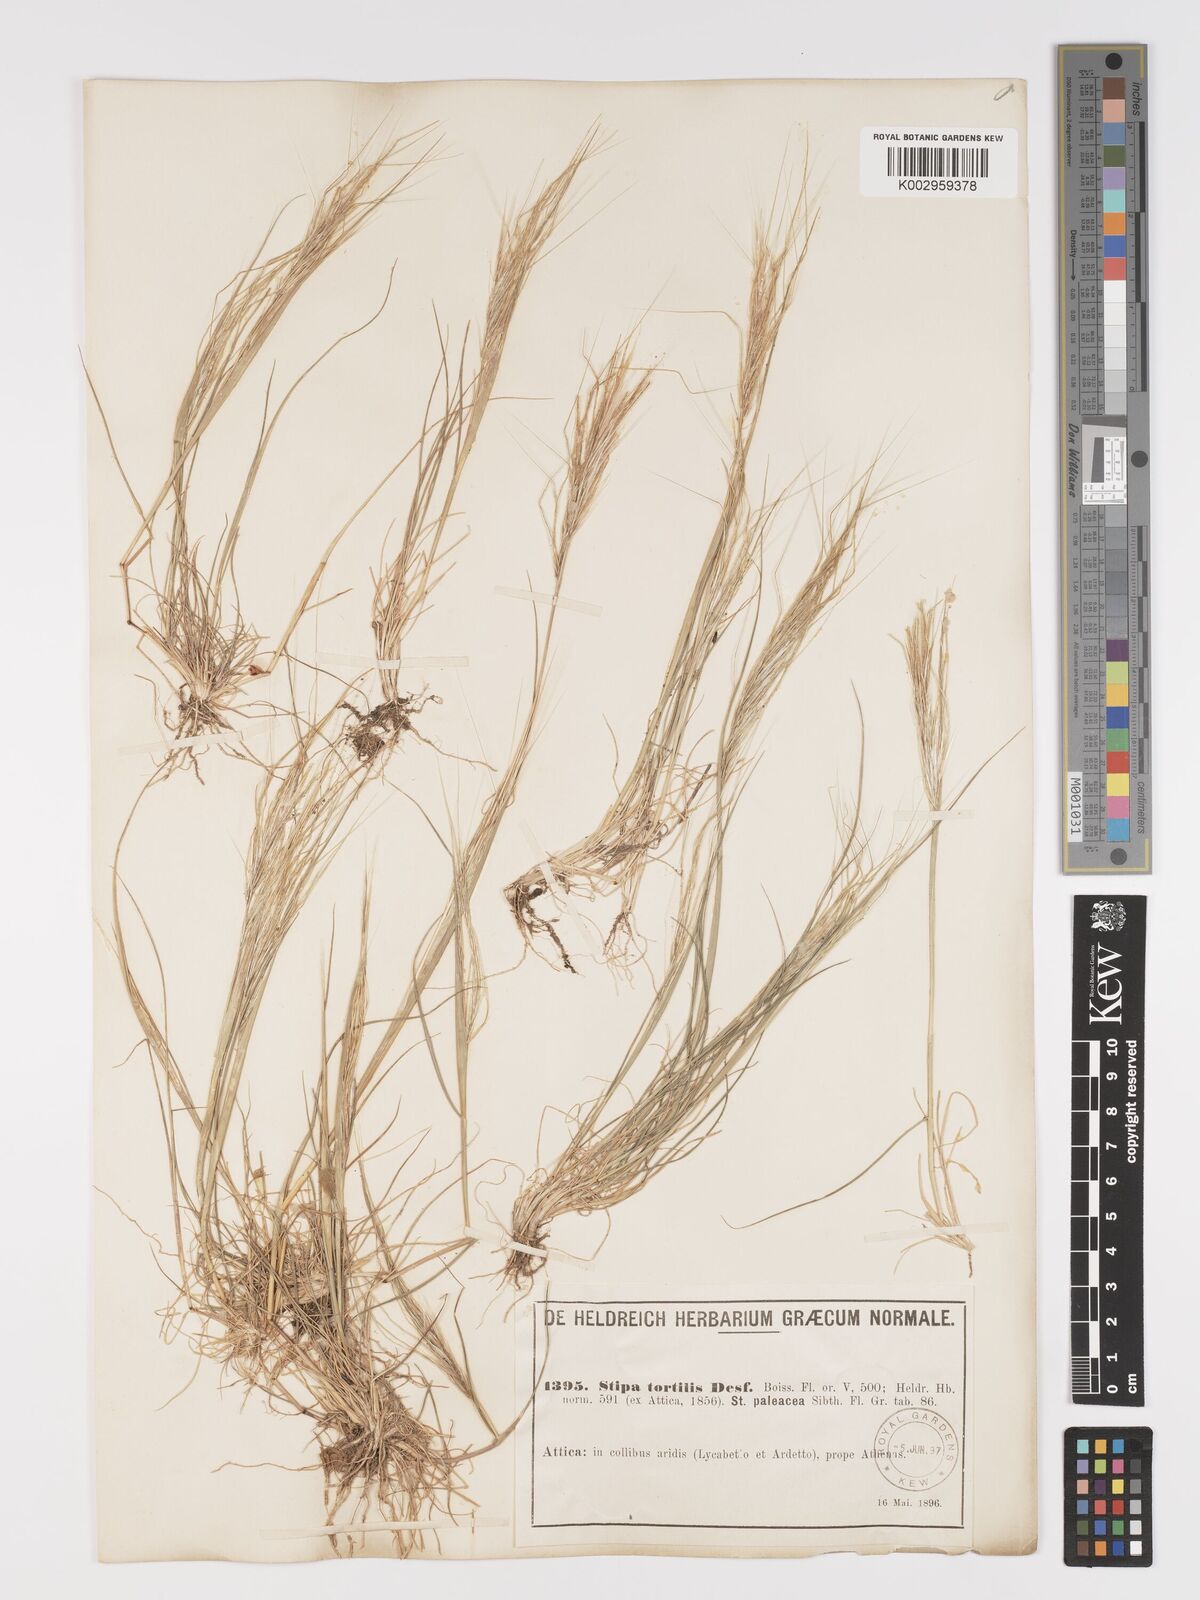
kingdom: Plantae
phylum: Tracheophyta
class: Liliopsida
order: Poales
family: Poaceae
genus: Stipellula
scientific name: Stipellula capensis
